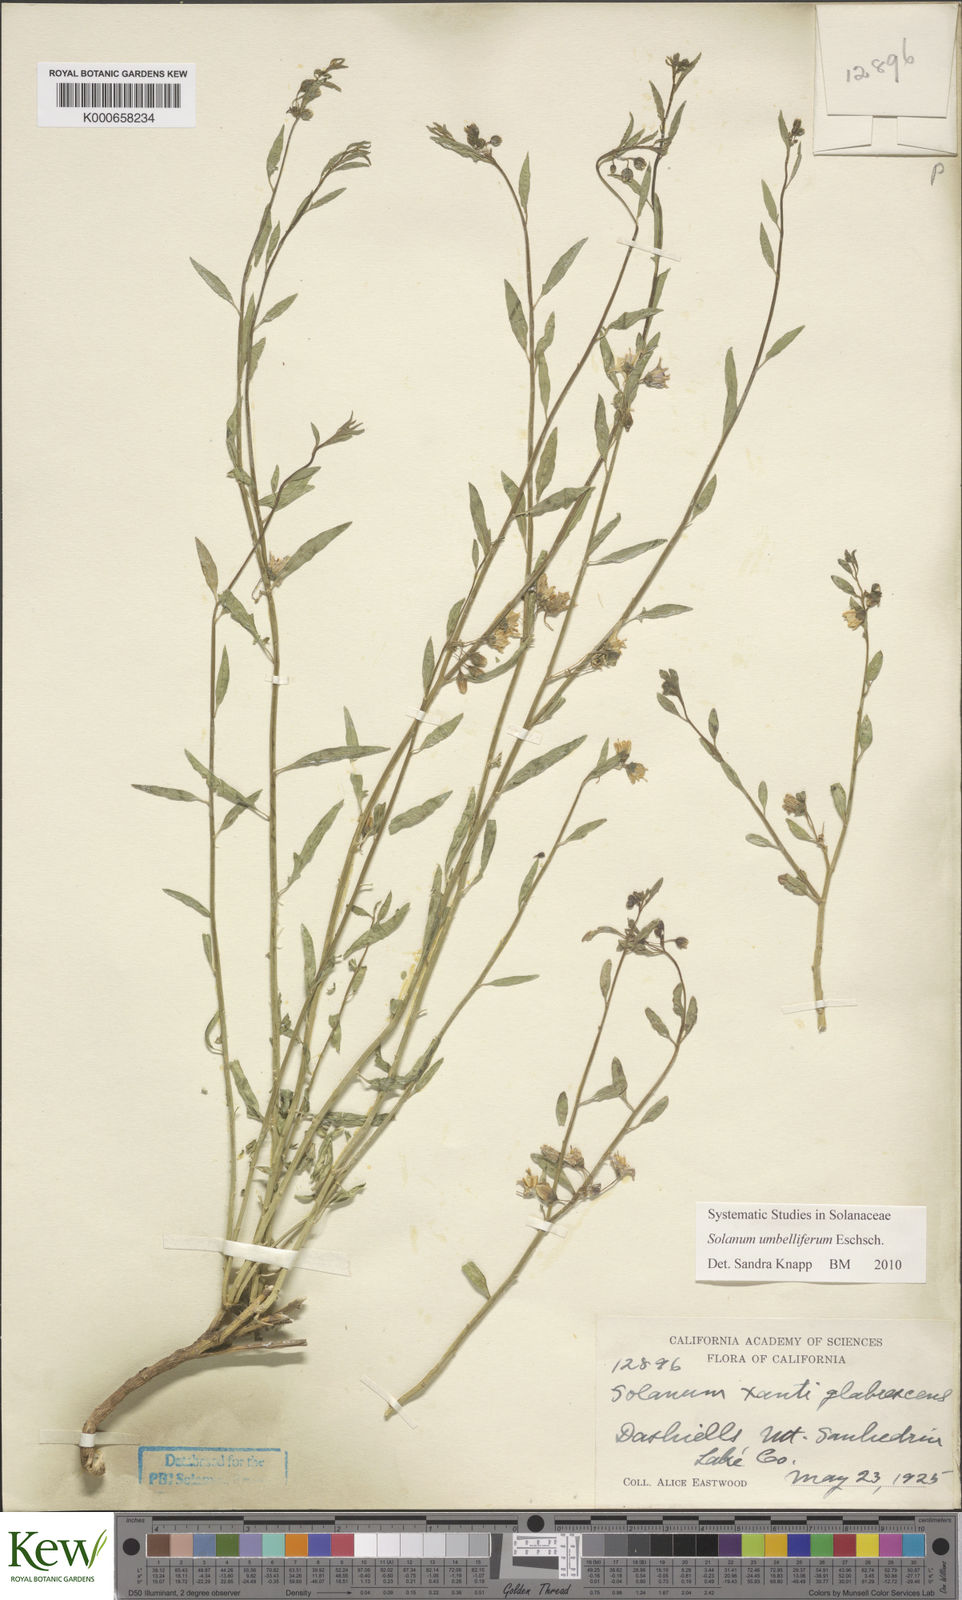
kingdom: Plantae
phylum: Tracheophyta
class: Magnoliopsida
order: Solanales
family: Solanaceae
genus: Solanum
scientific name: Solanum umbelliferum
